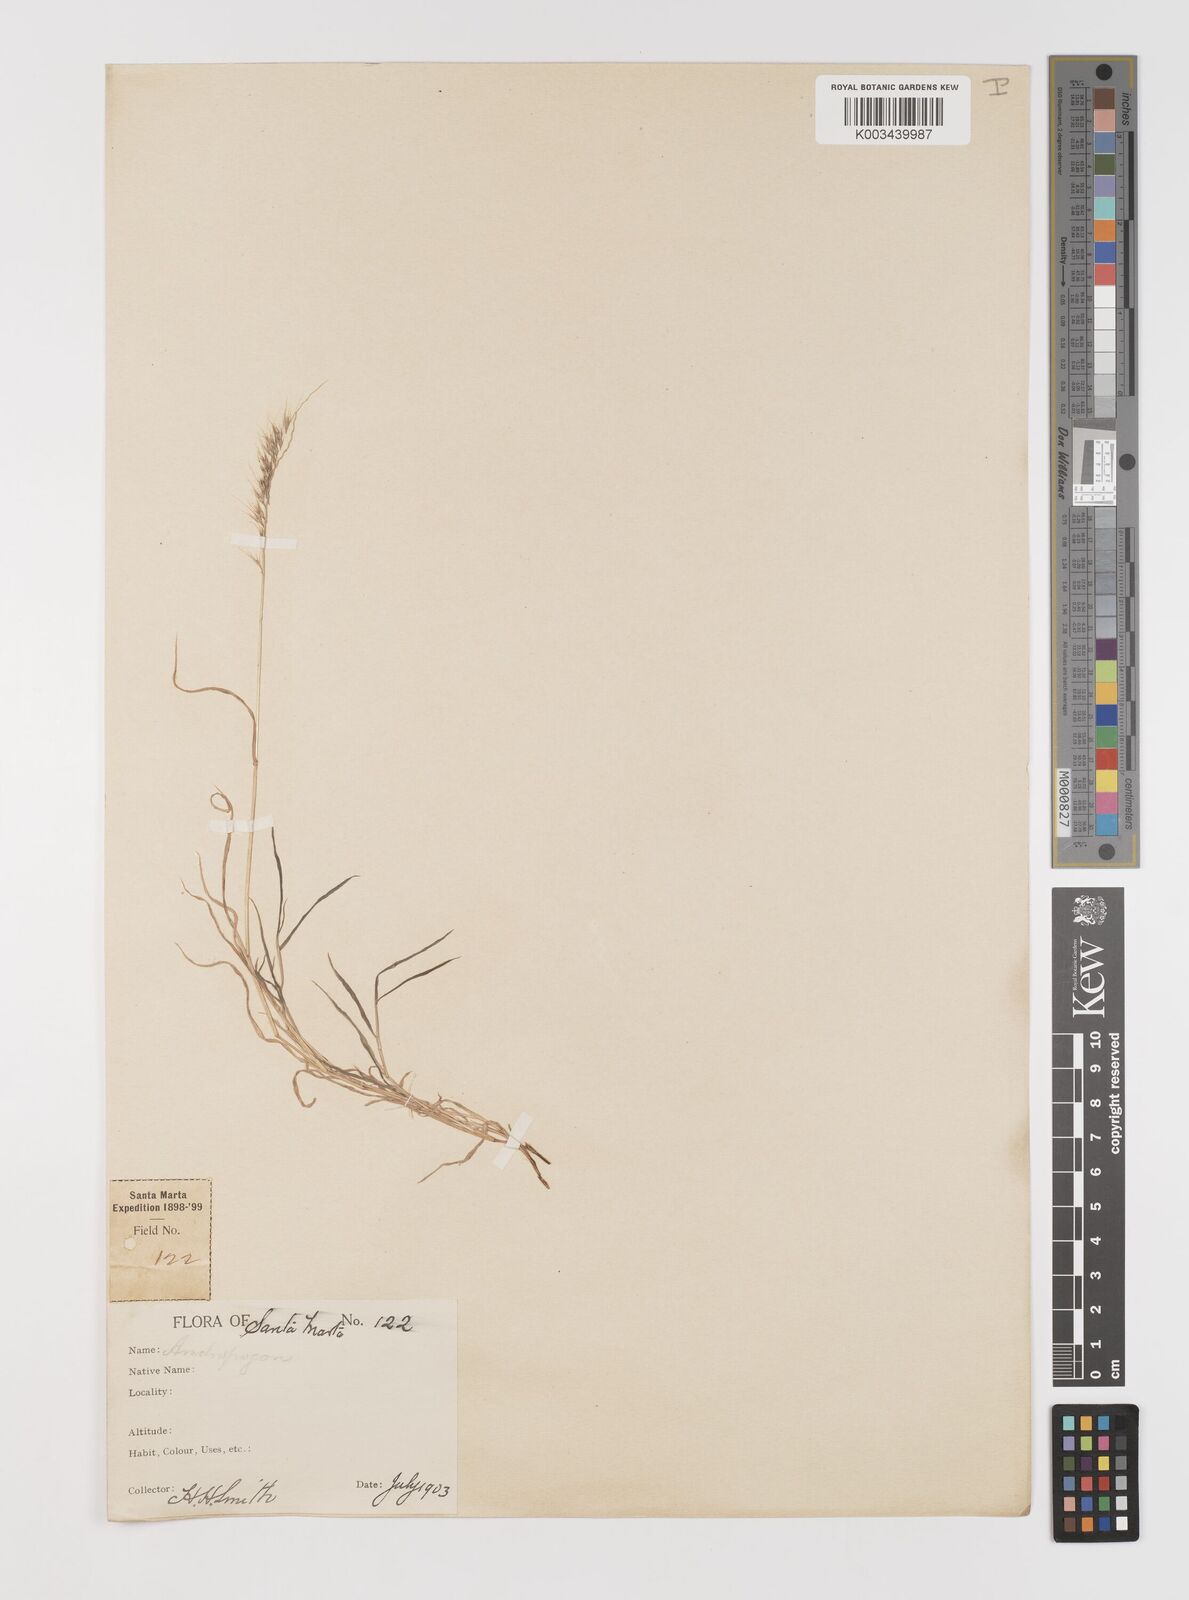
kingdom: Plantae
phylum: Tracheophyta
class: Liliopsida
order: Poales
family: Poaceae
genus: Muhlenbergia
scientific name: Muhlenbergia cenchroides
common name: Relaxgrass
